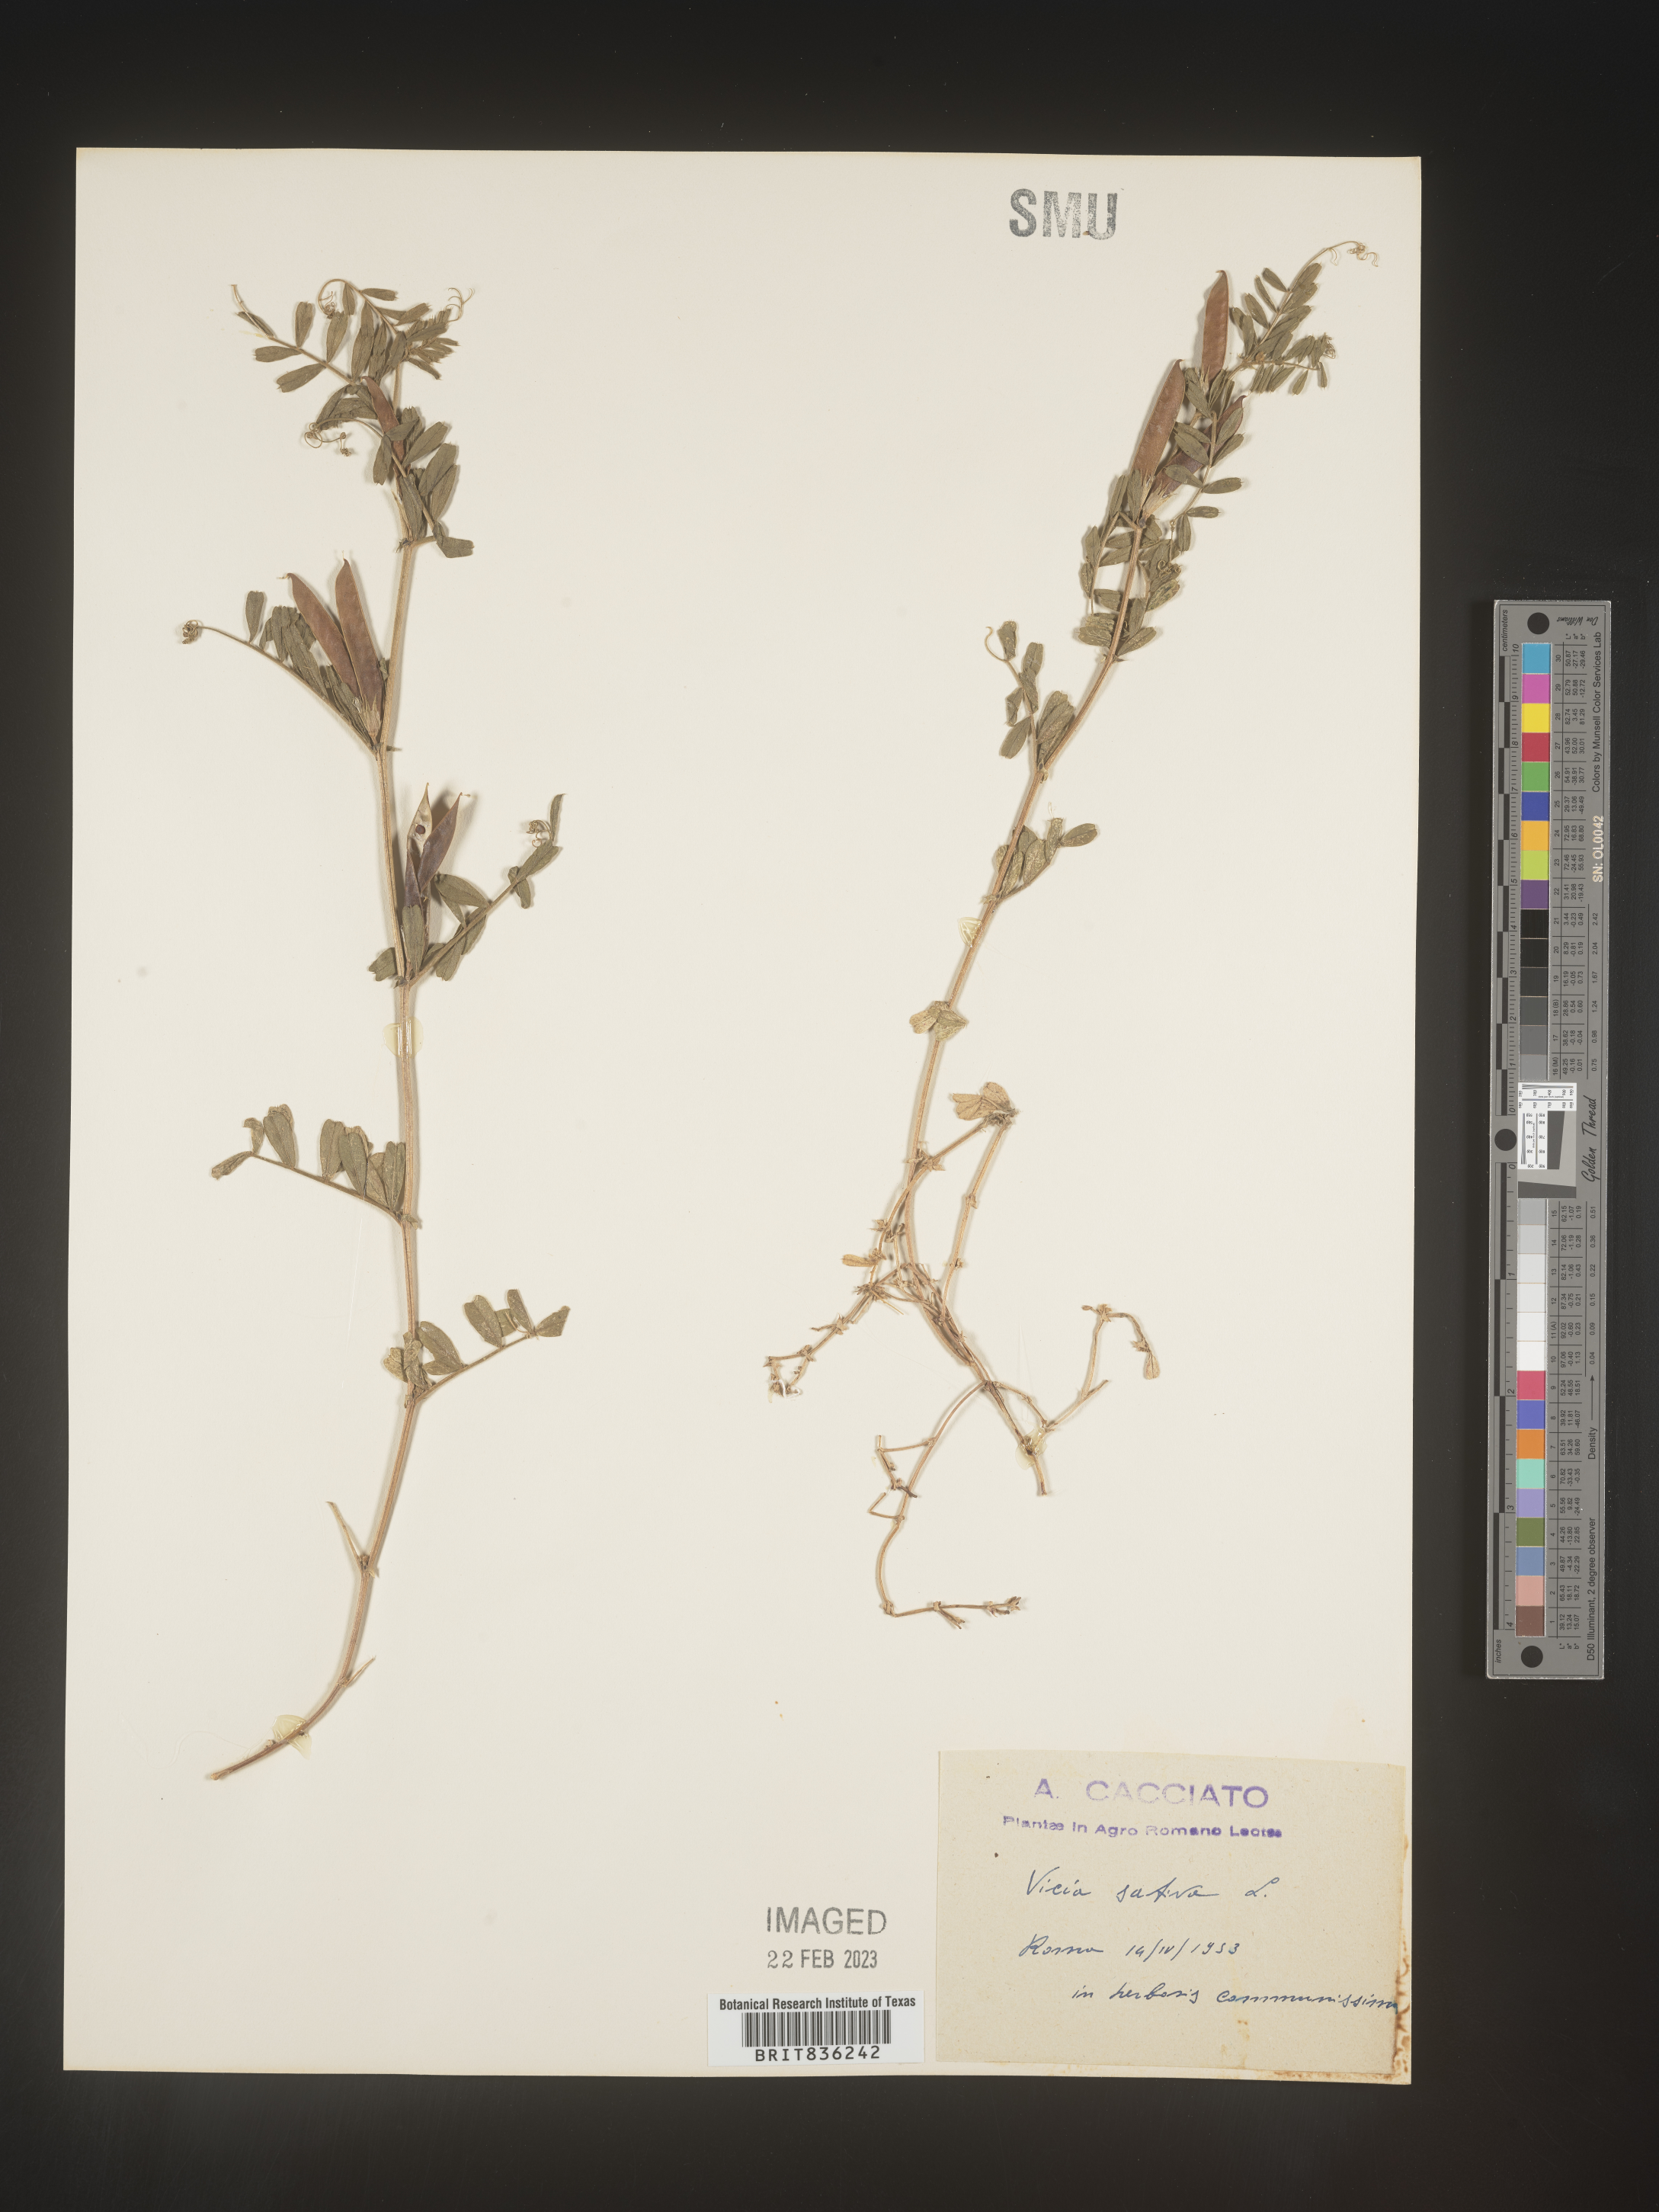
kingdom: Plantae
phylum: Tracheophyta
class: Magnoliopsida
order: Fabales
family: Fabaceae
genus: Vicia
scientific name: Vicia
